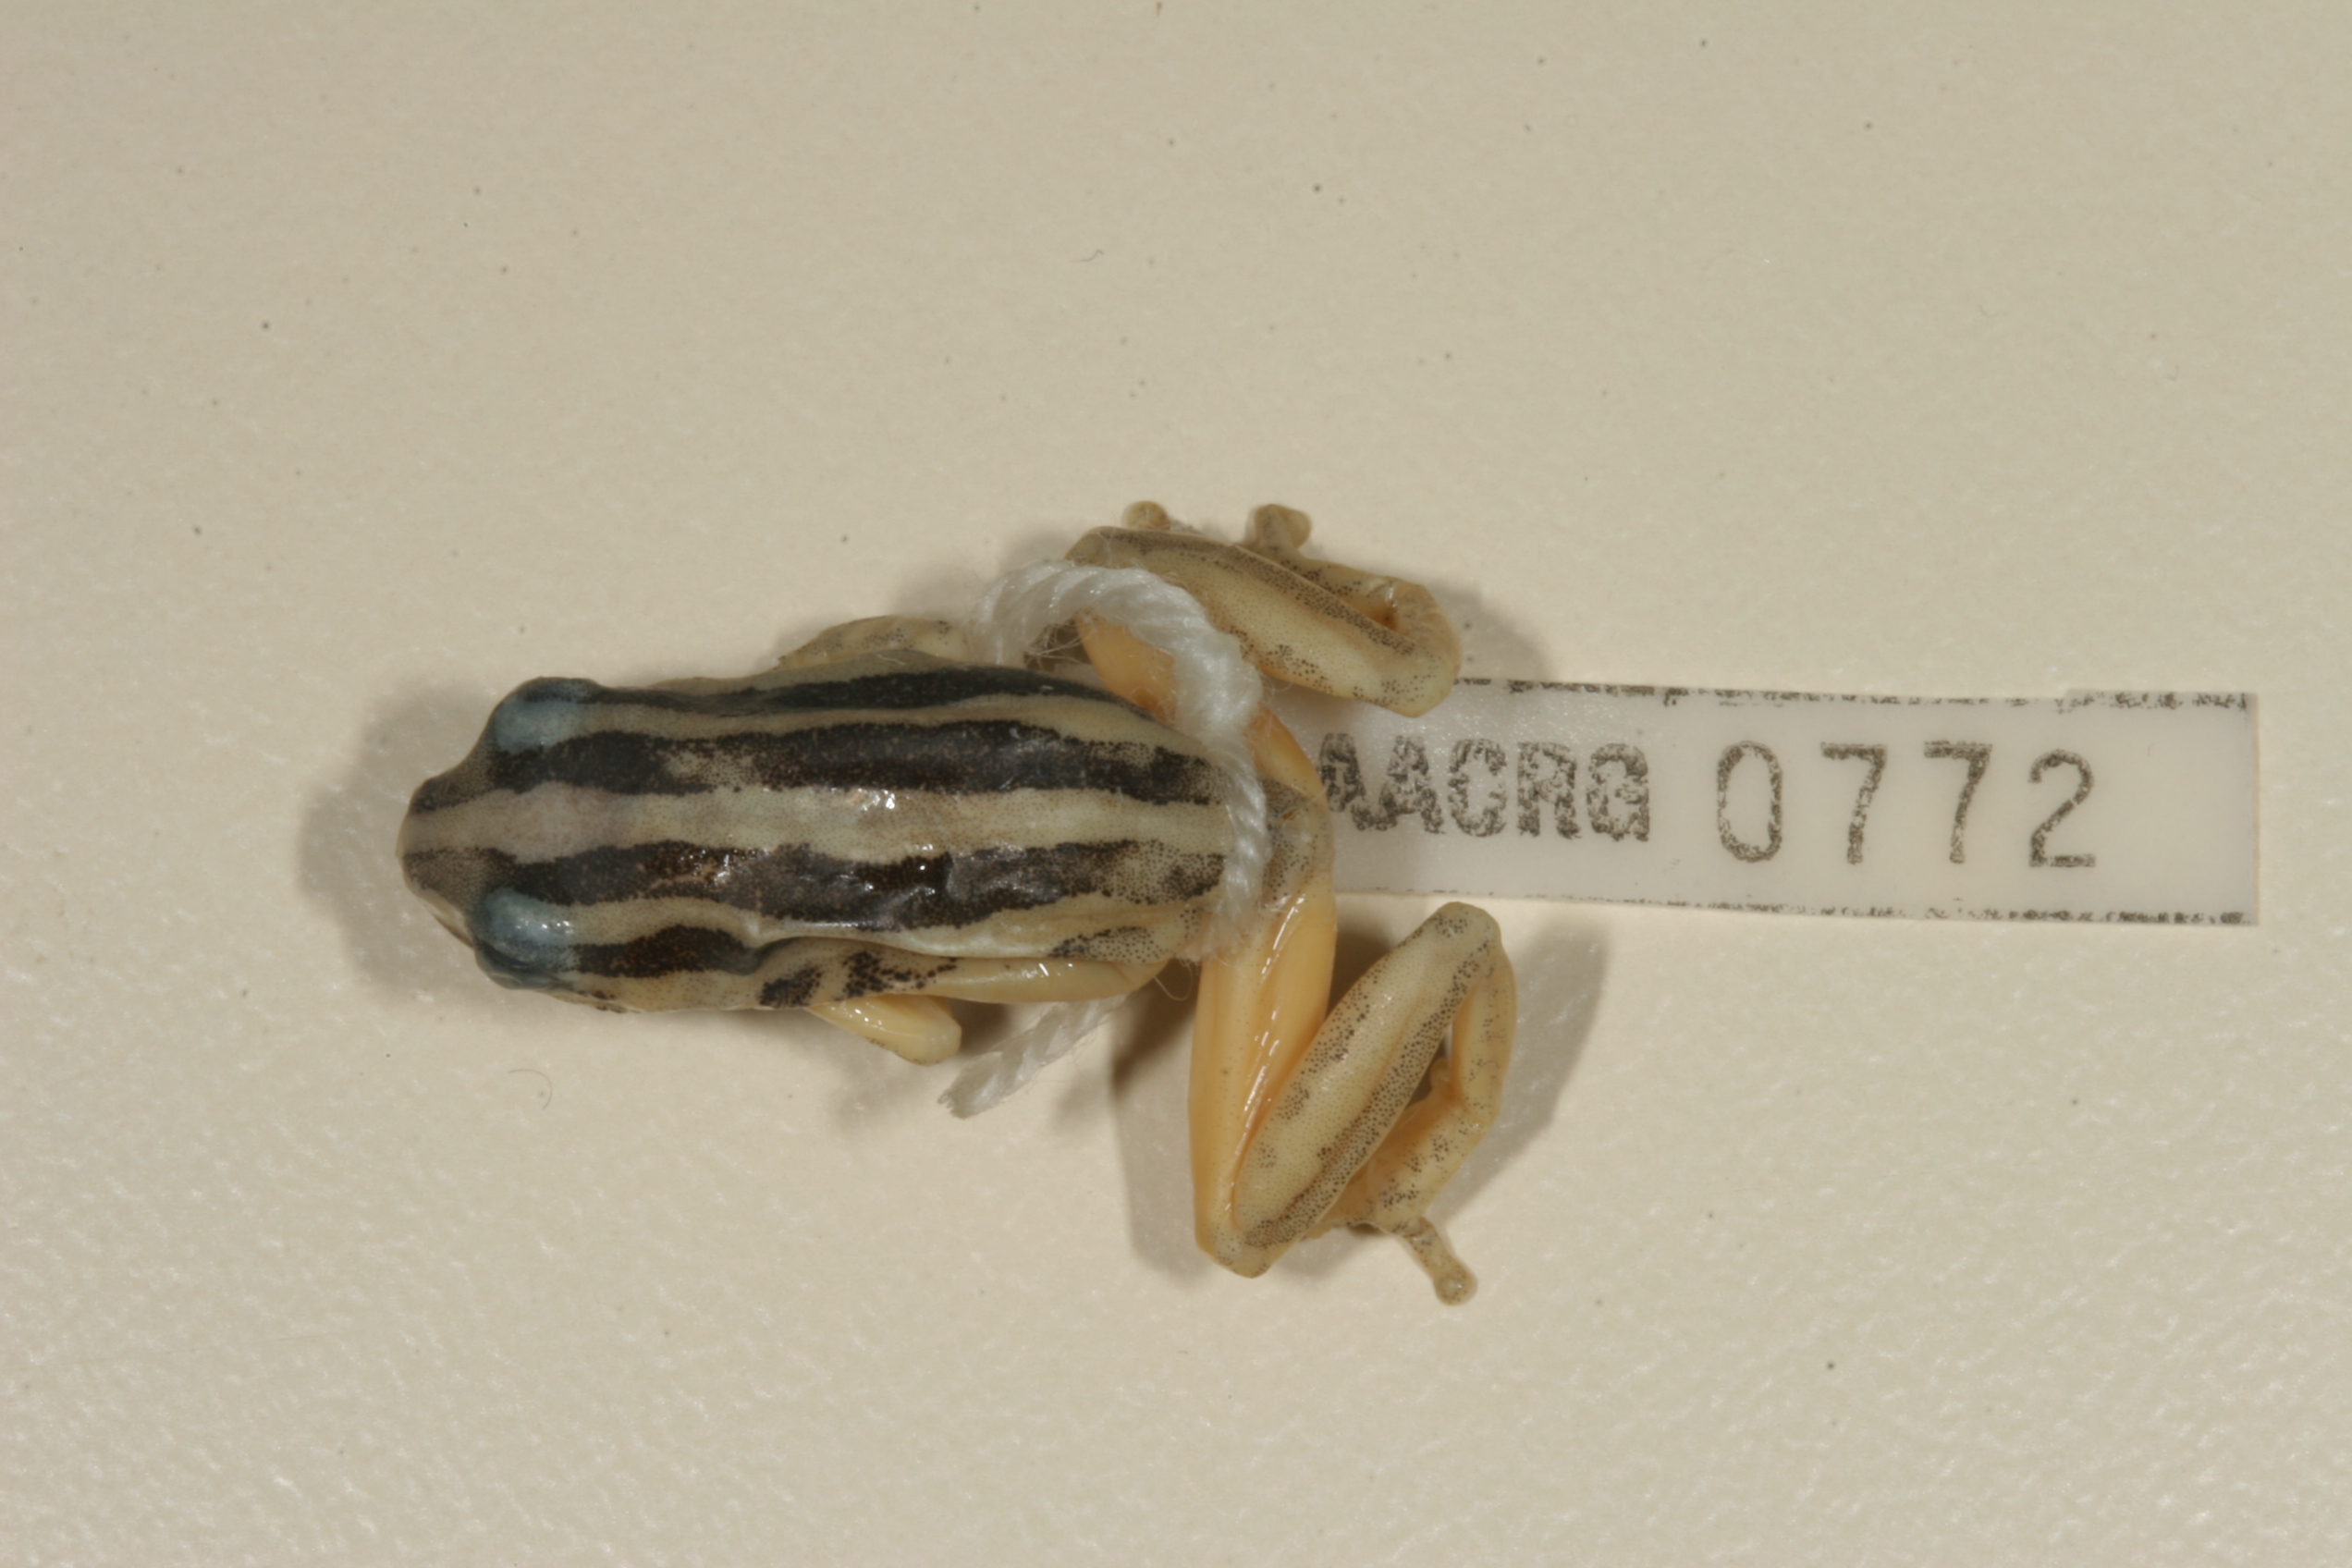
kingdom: Animalia
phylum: Chordata
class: Amphibia
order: Anura
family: Hyperoliidae
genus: Hyperolius
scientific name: Hyperolius marmoratus
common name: Painted reed frog
